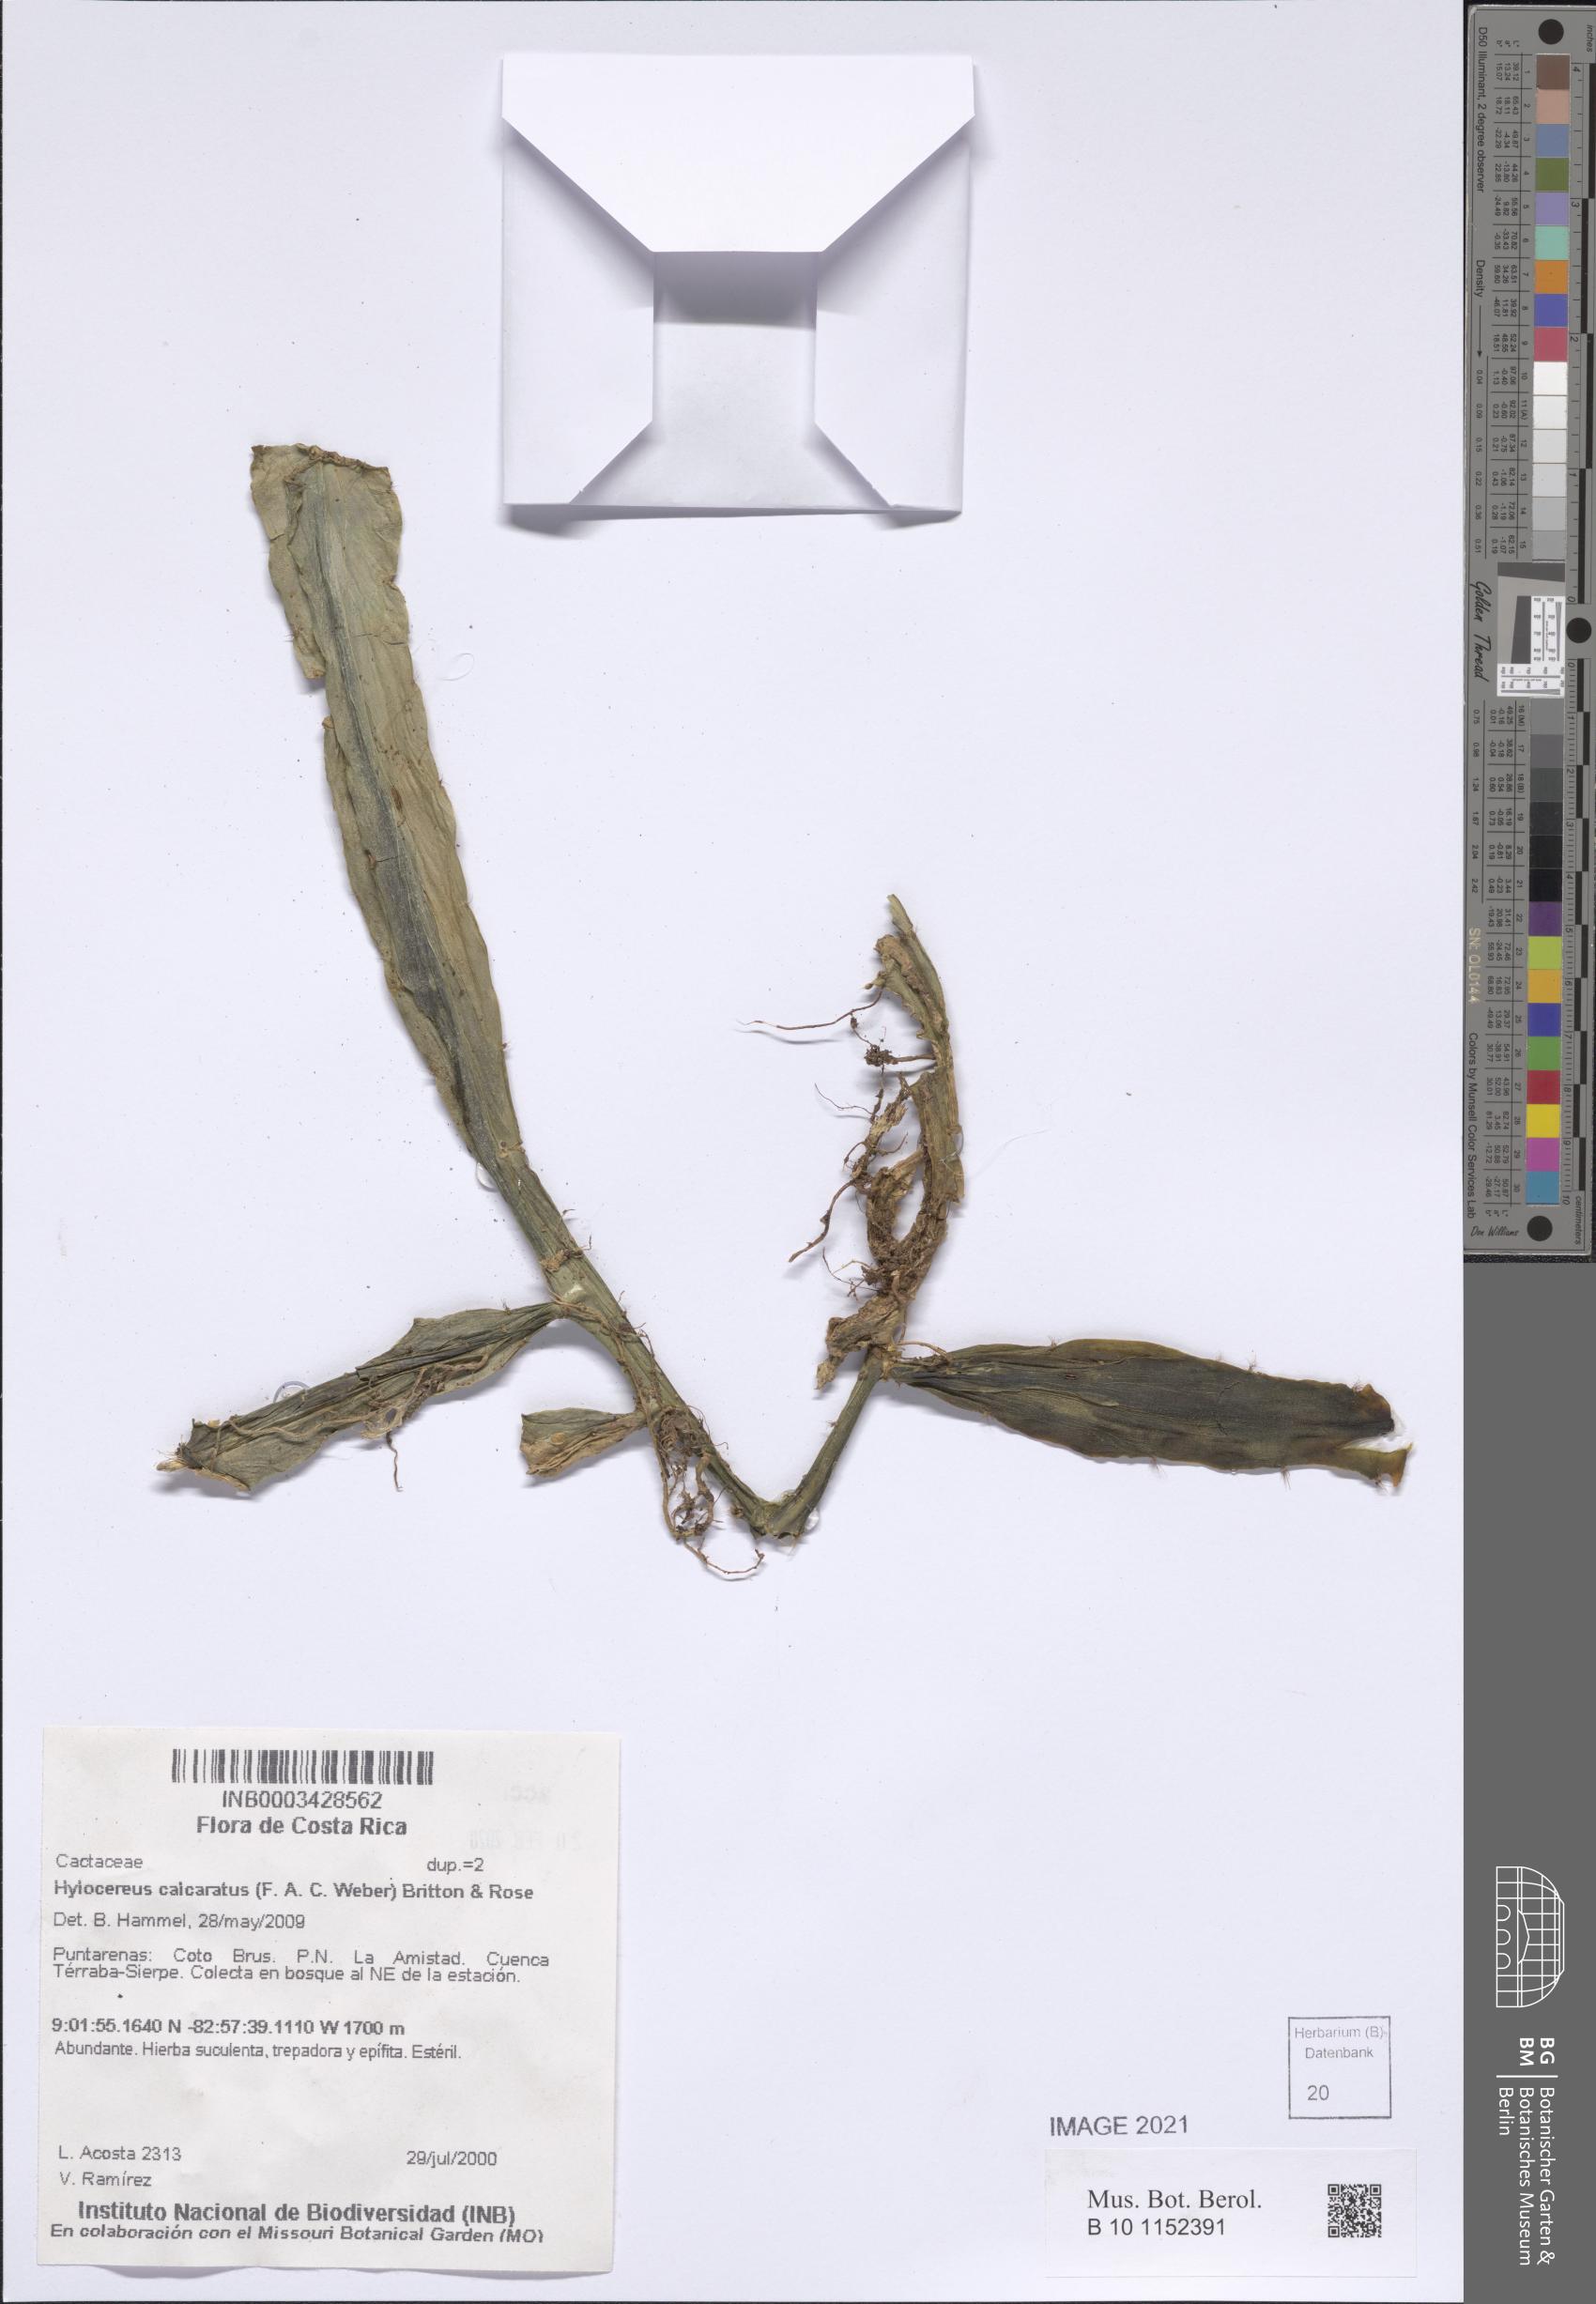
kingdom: Plantae
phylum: Tracheophyta
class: Magnoliopsida
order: Caryophyllales
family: Cactaceae
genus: Selenicereus
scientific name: Selenicereus calcaratus
